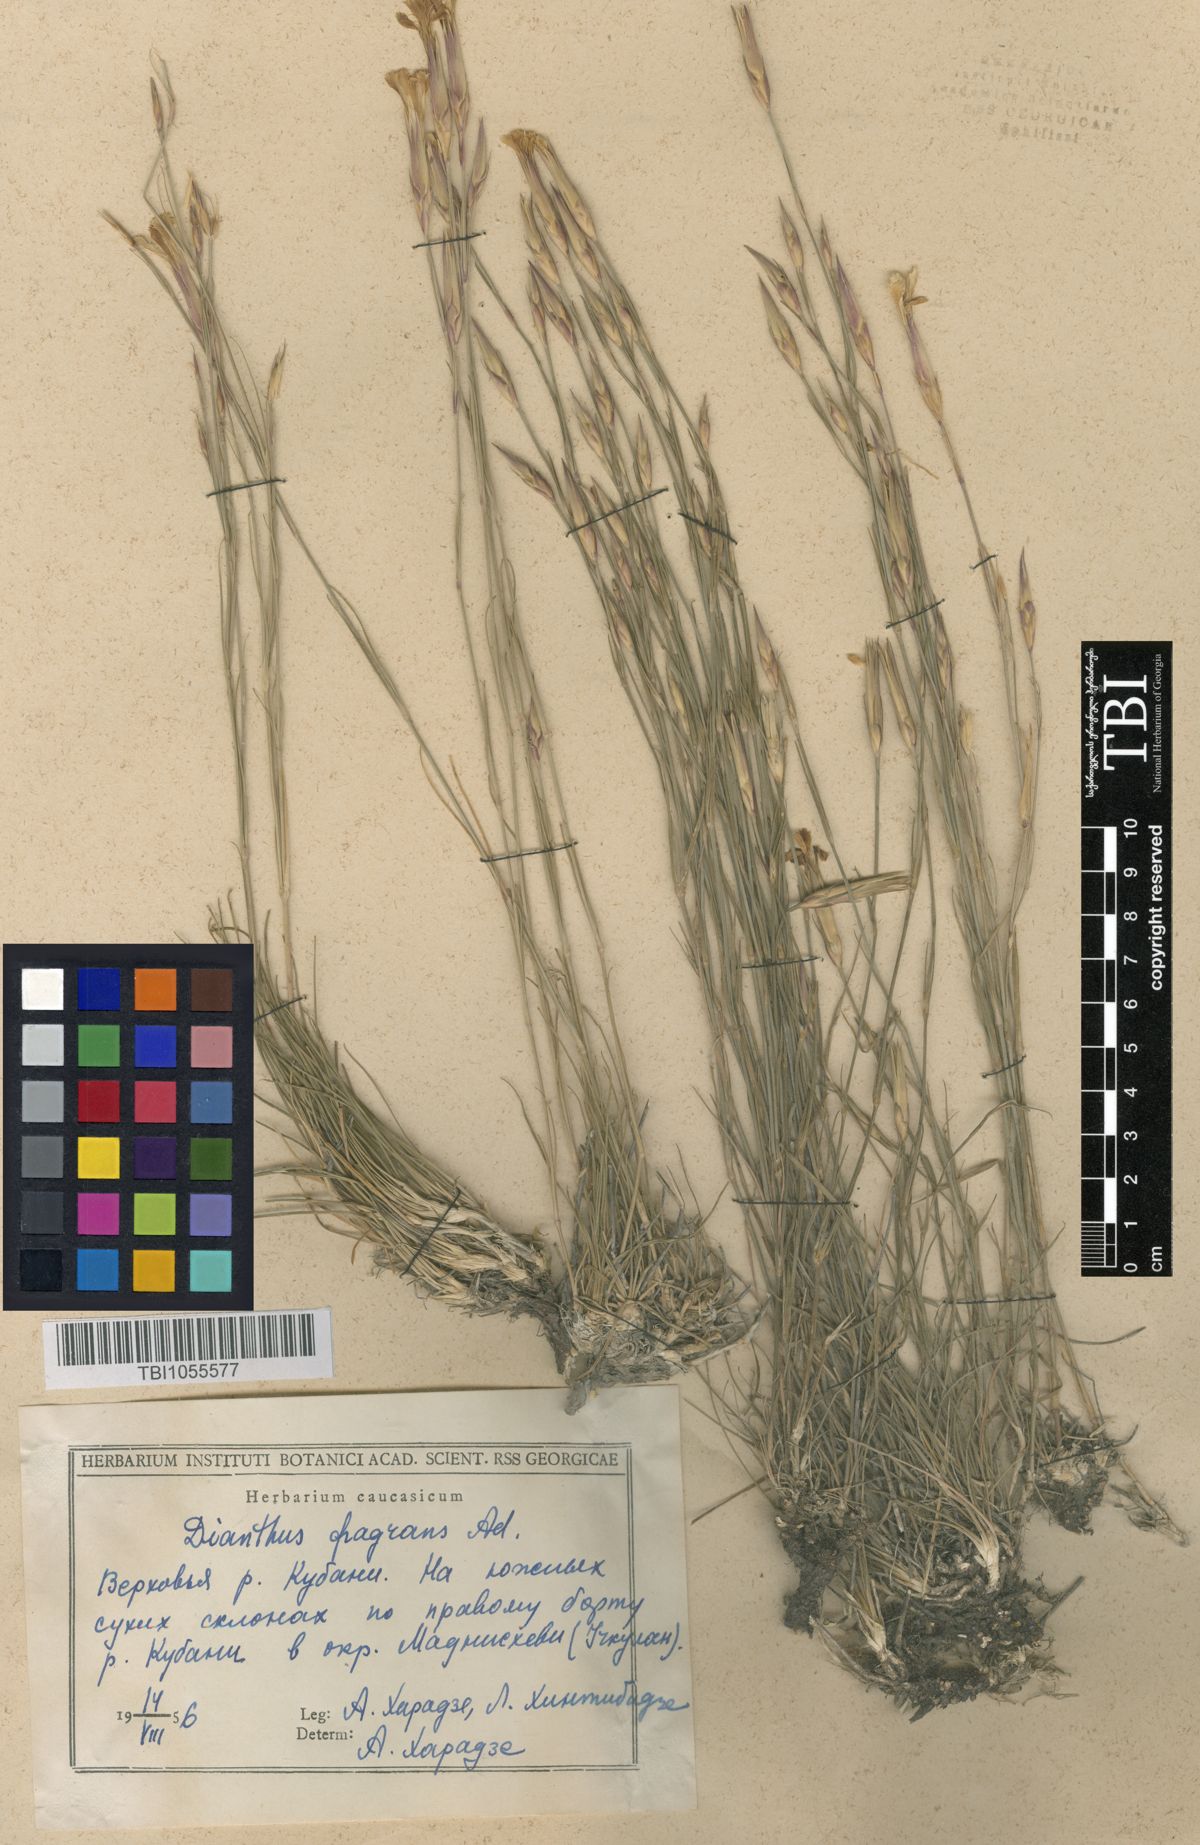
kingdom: Plantae
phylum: Tracheophyta
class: Magnoliopsida
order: Caryophyllales
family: Caryophyllaceae
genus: Dianthus
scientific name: Dianthus
